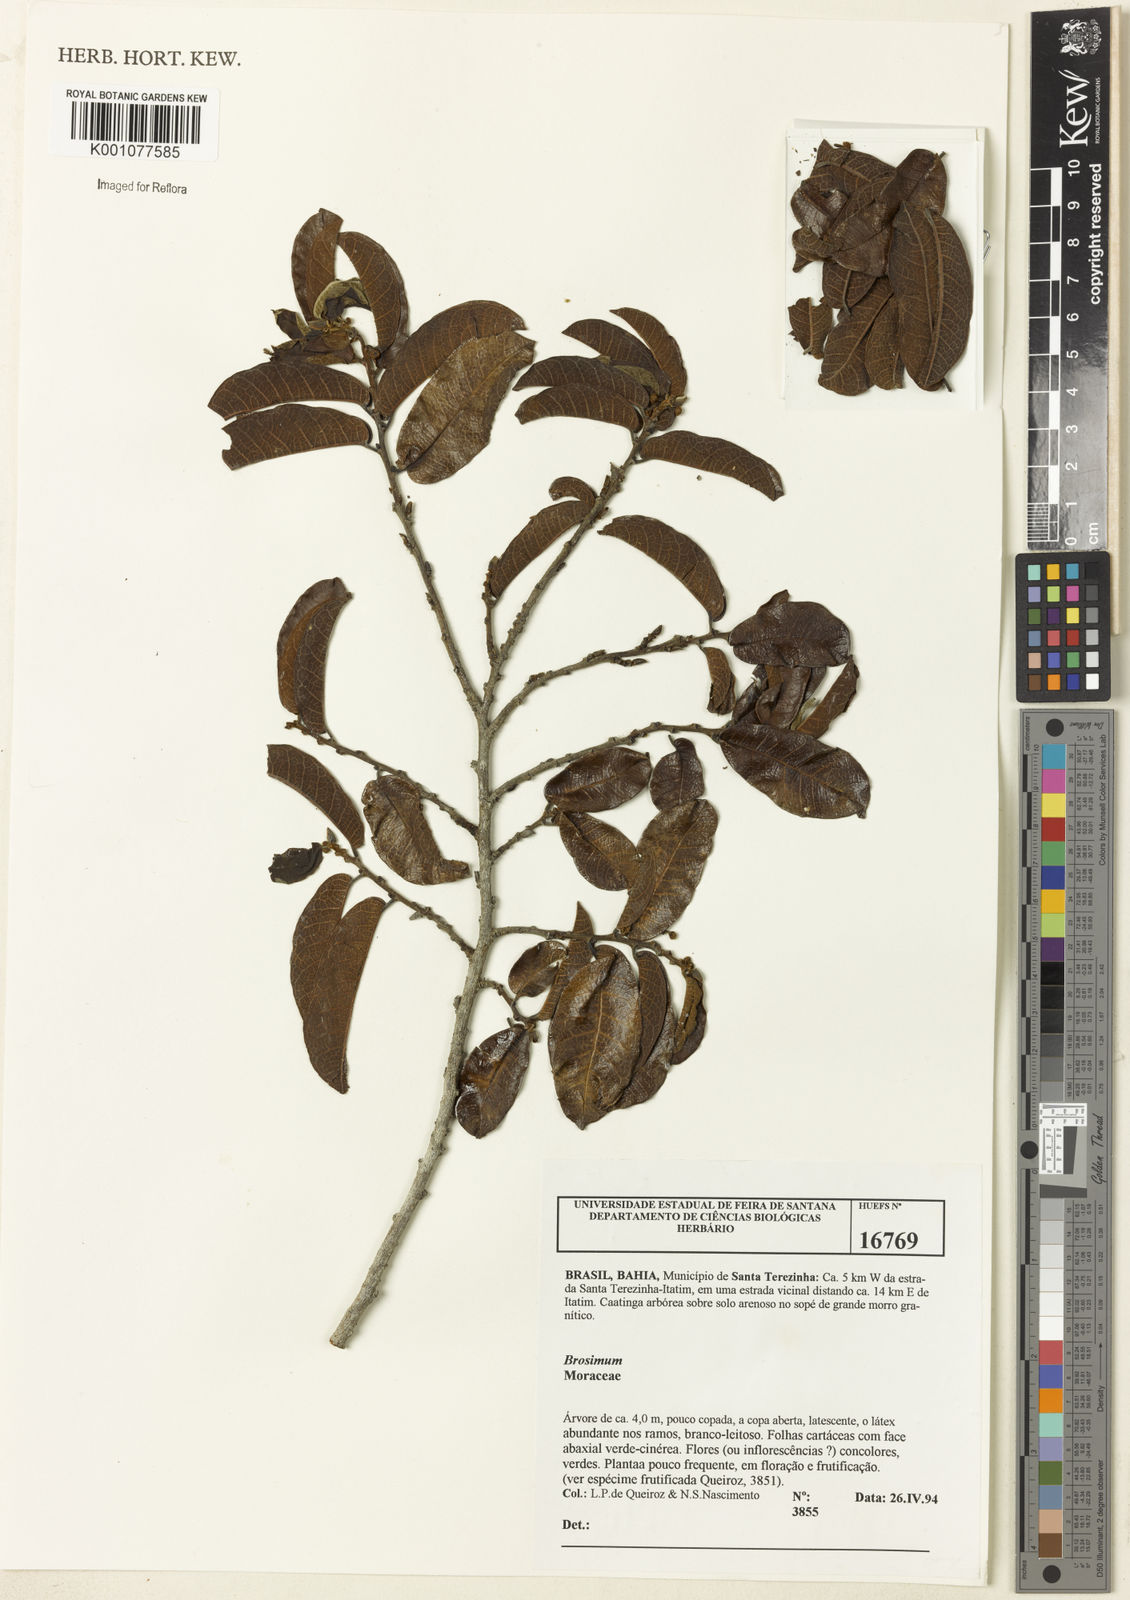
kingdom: Plantae
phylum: Tracheophyta
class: Magnoliopsida
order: Rosales
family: Moraceae
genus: Brosimum
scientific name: Brosimum
